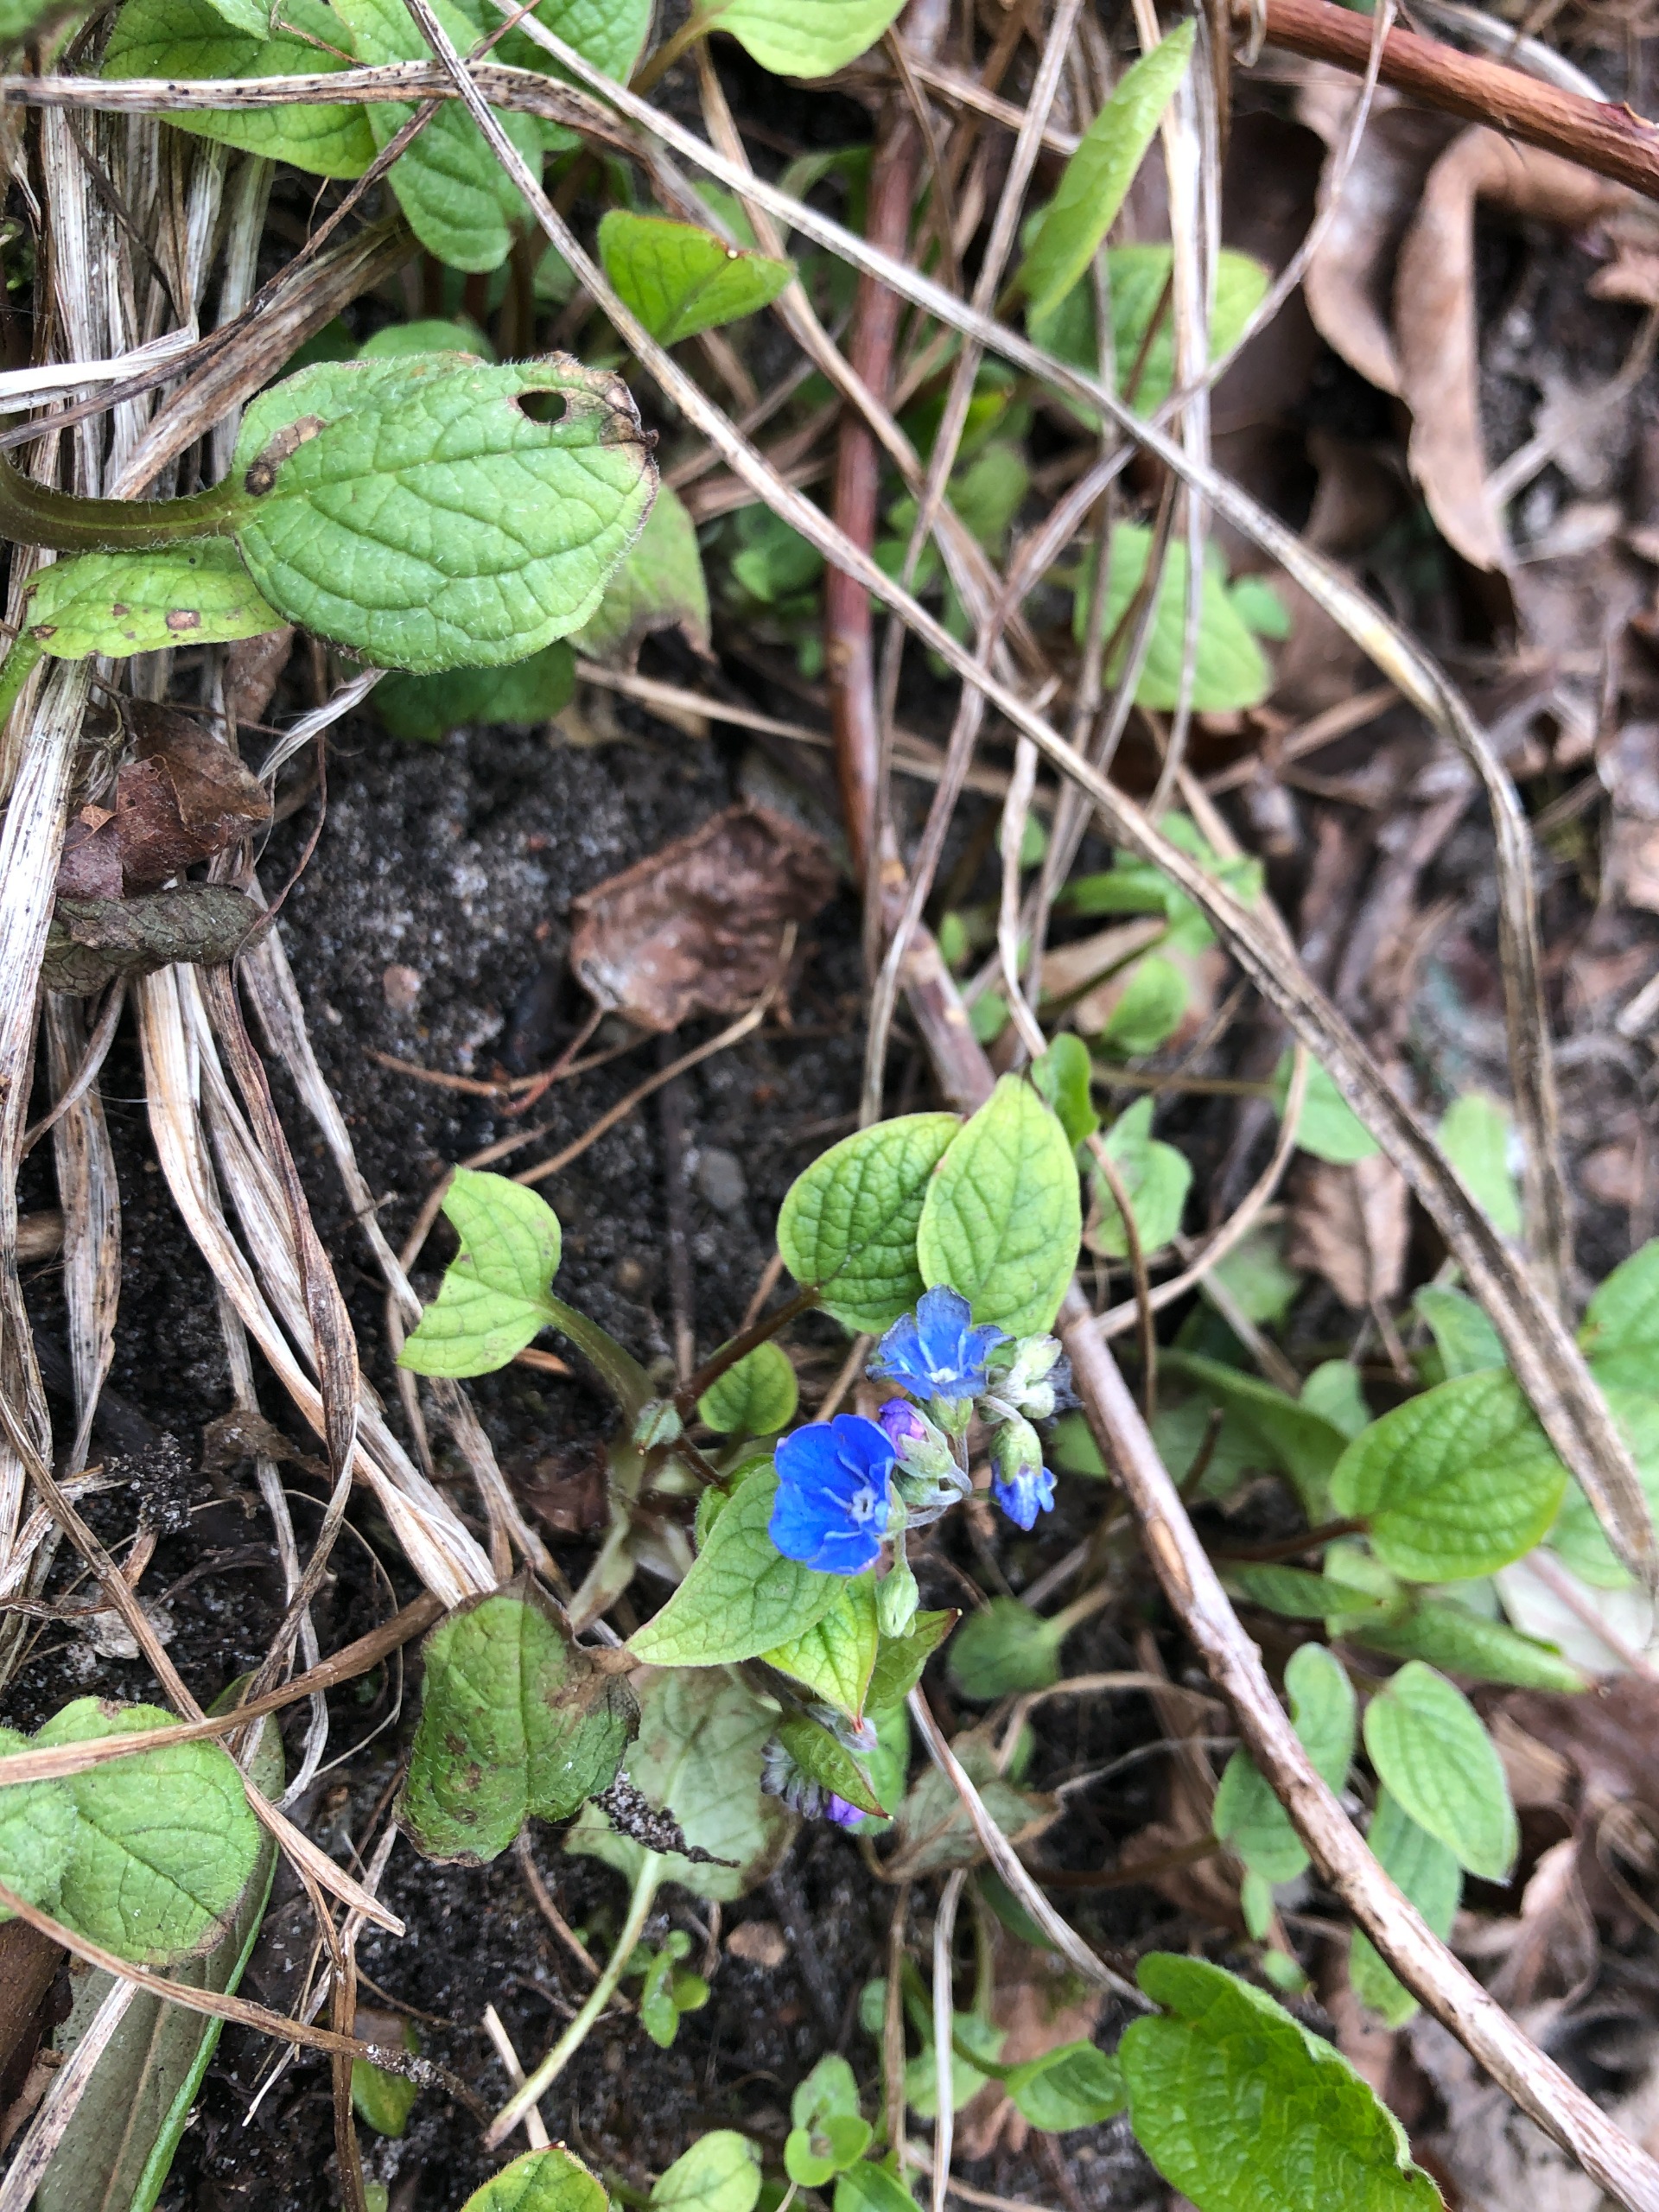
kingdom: Plantae
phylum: Tracheophyta
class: Magnoliopsida
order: Boraginales
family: Boraginaceae
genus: Omphalodes
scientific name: Omphalodes verna
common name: Vår-kærminde
